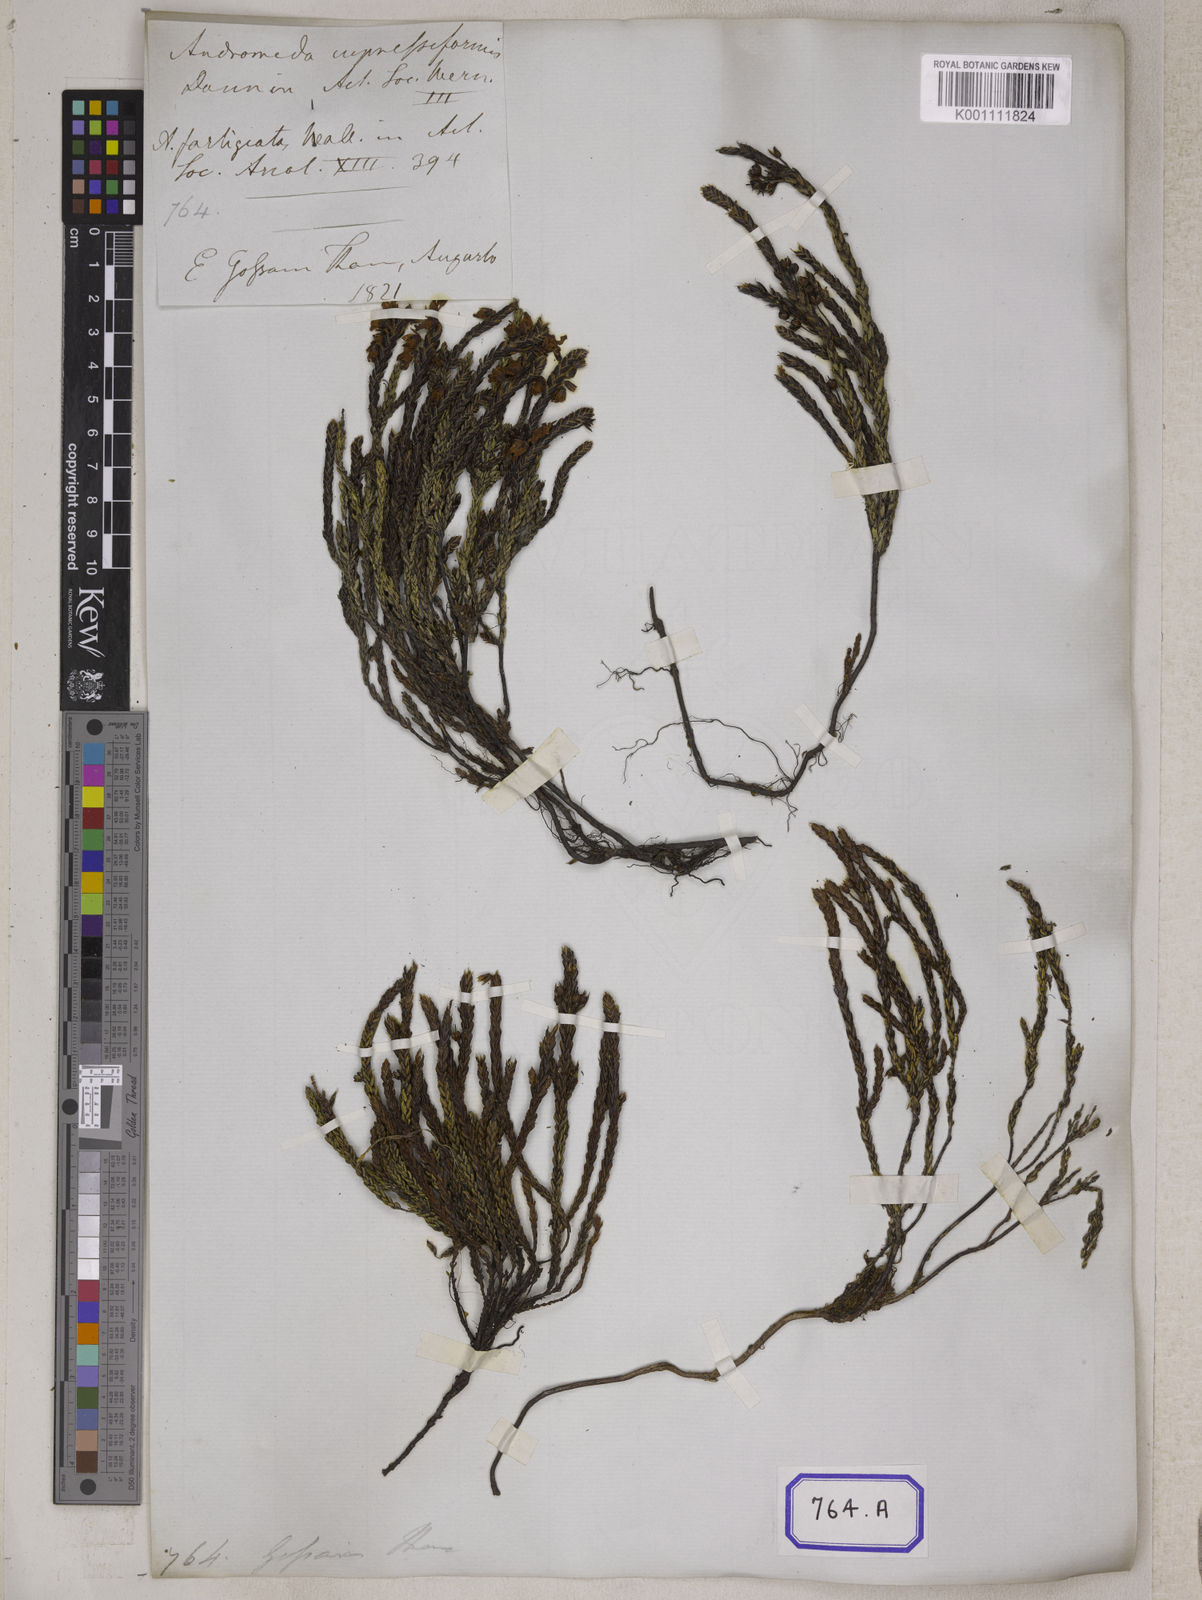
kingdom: Plantae
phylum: Tracheophyta
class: Magnoliopsida
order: Ericales
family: Ericaceae
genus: Cassiope
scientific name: Cassiope fastigiata
